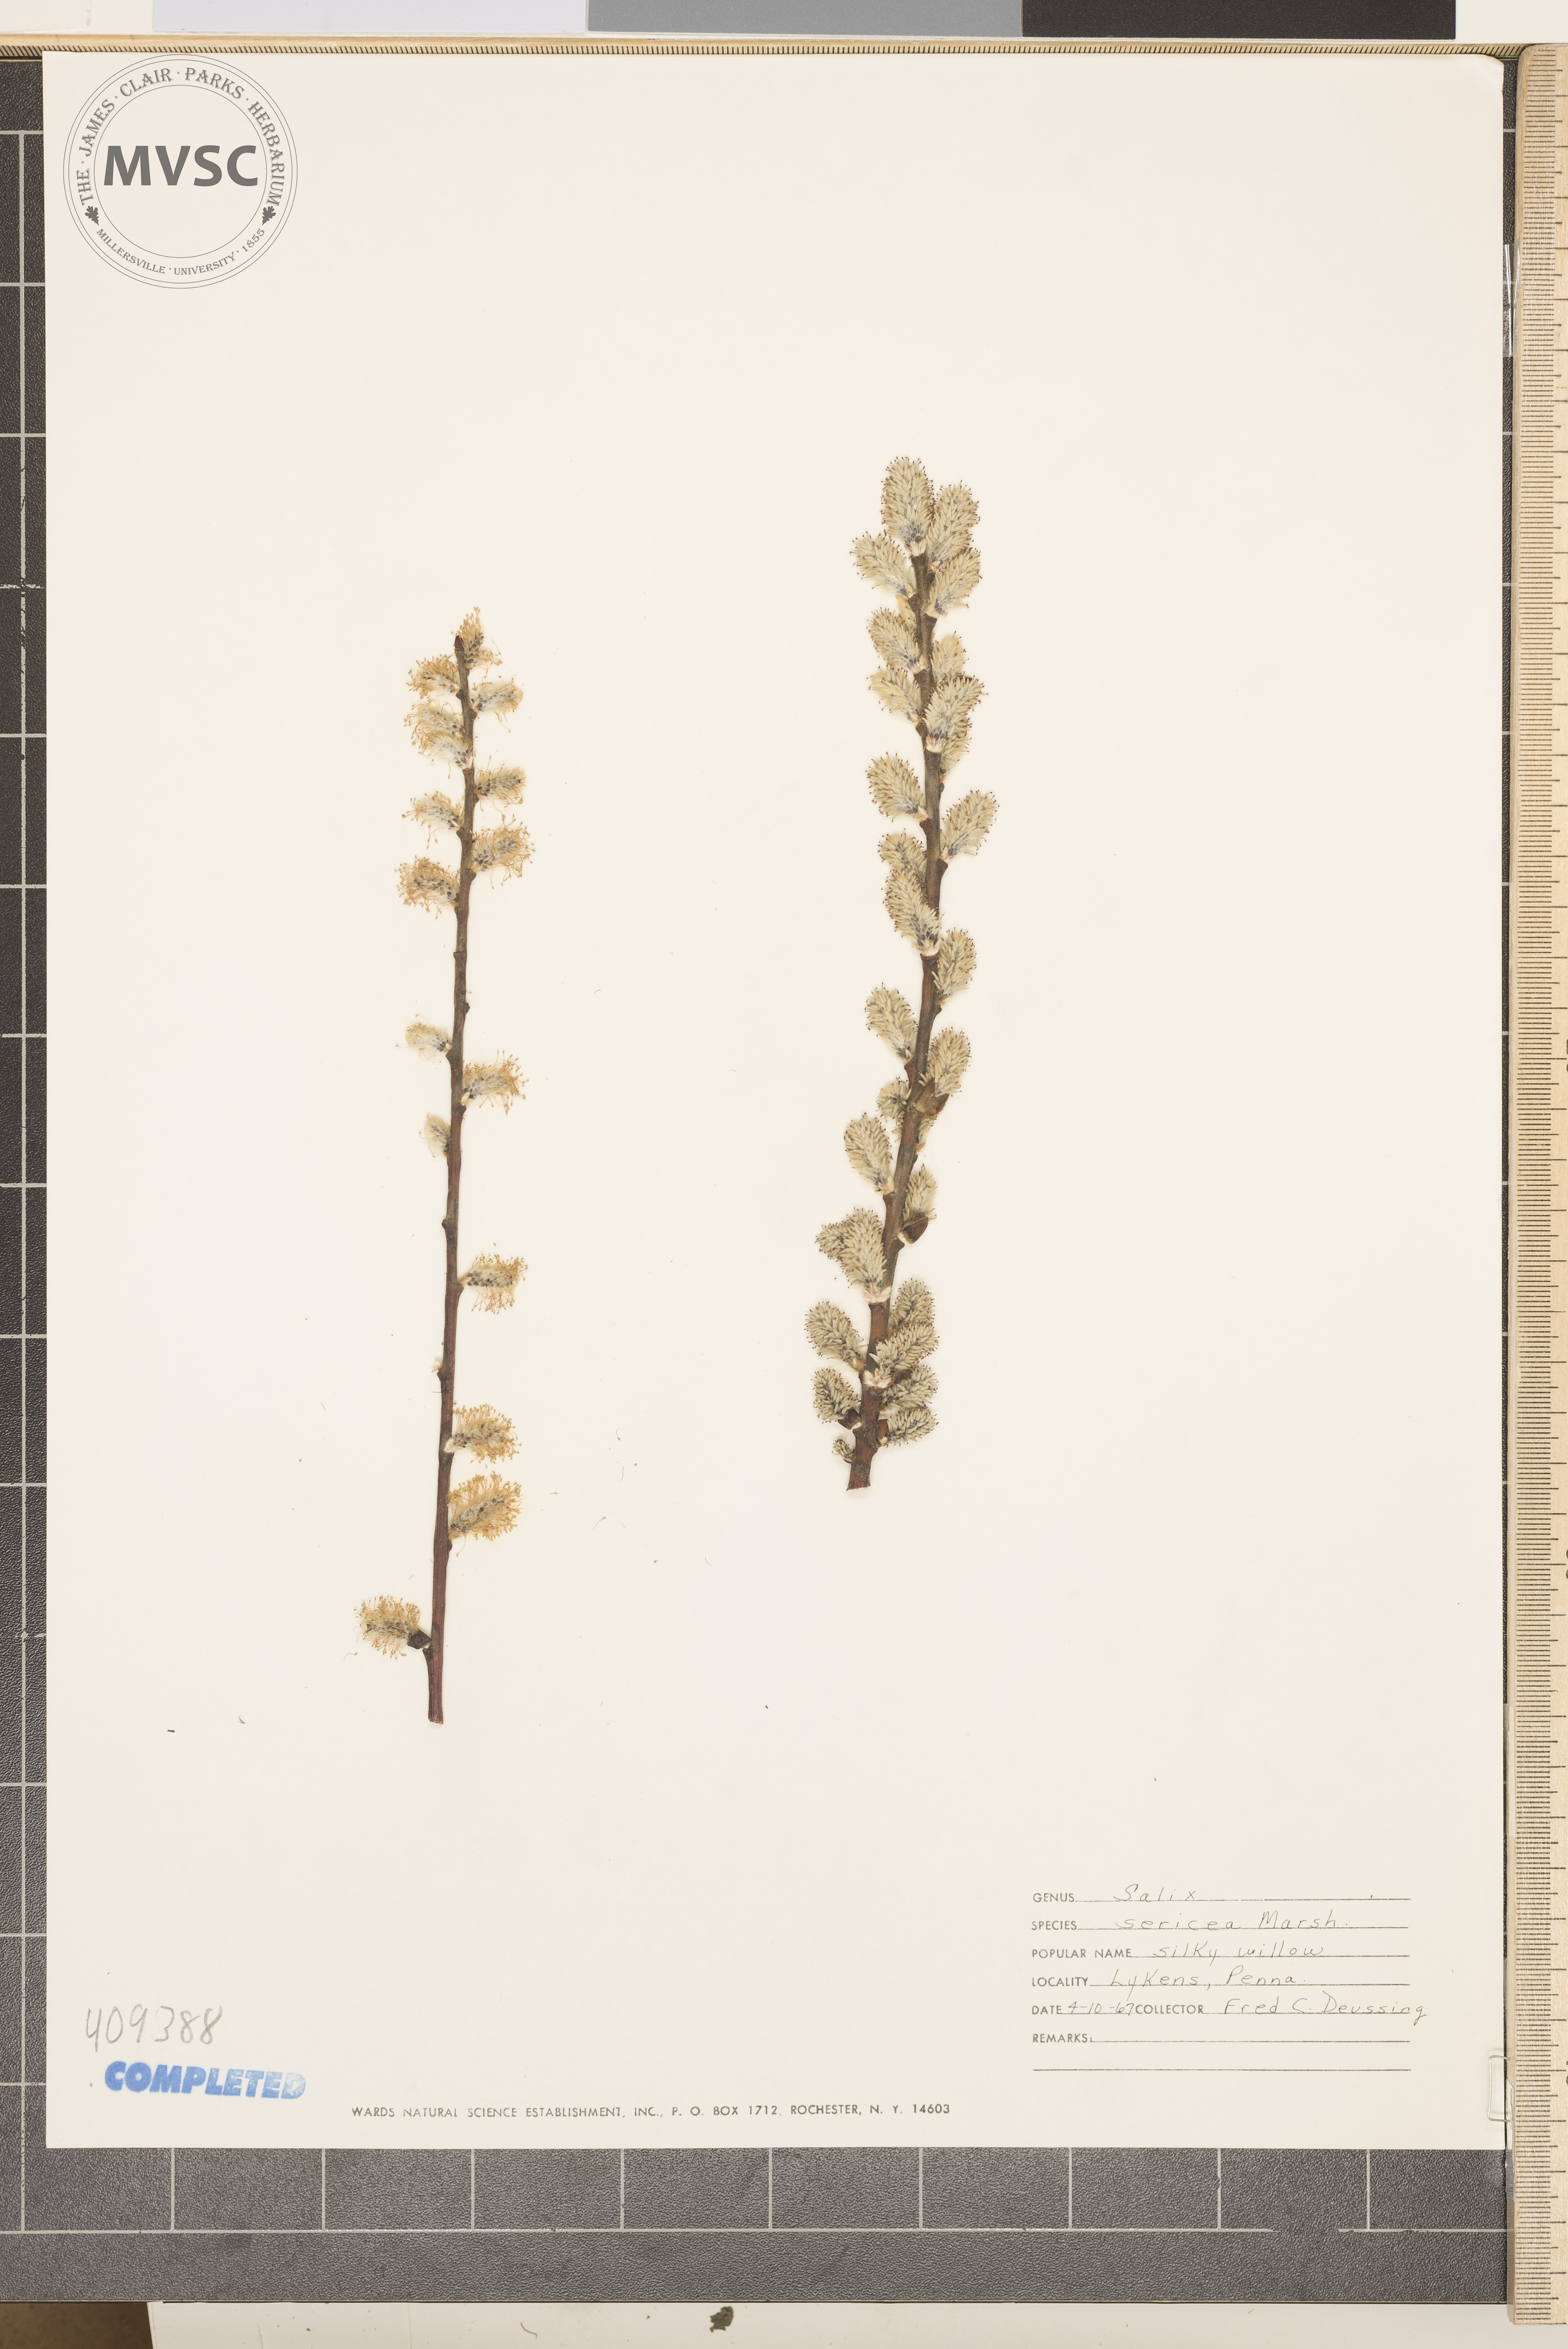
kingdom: Plantae
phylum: Tracheophyta
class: Magnoliopsida
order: Malpighiales
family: Salicaceae
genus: Salix
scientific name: Salix sericea
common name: Silky willow
